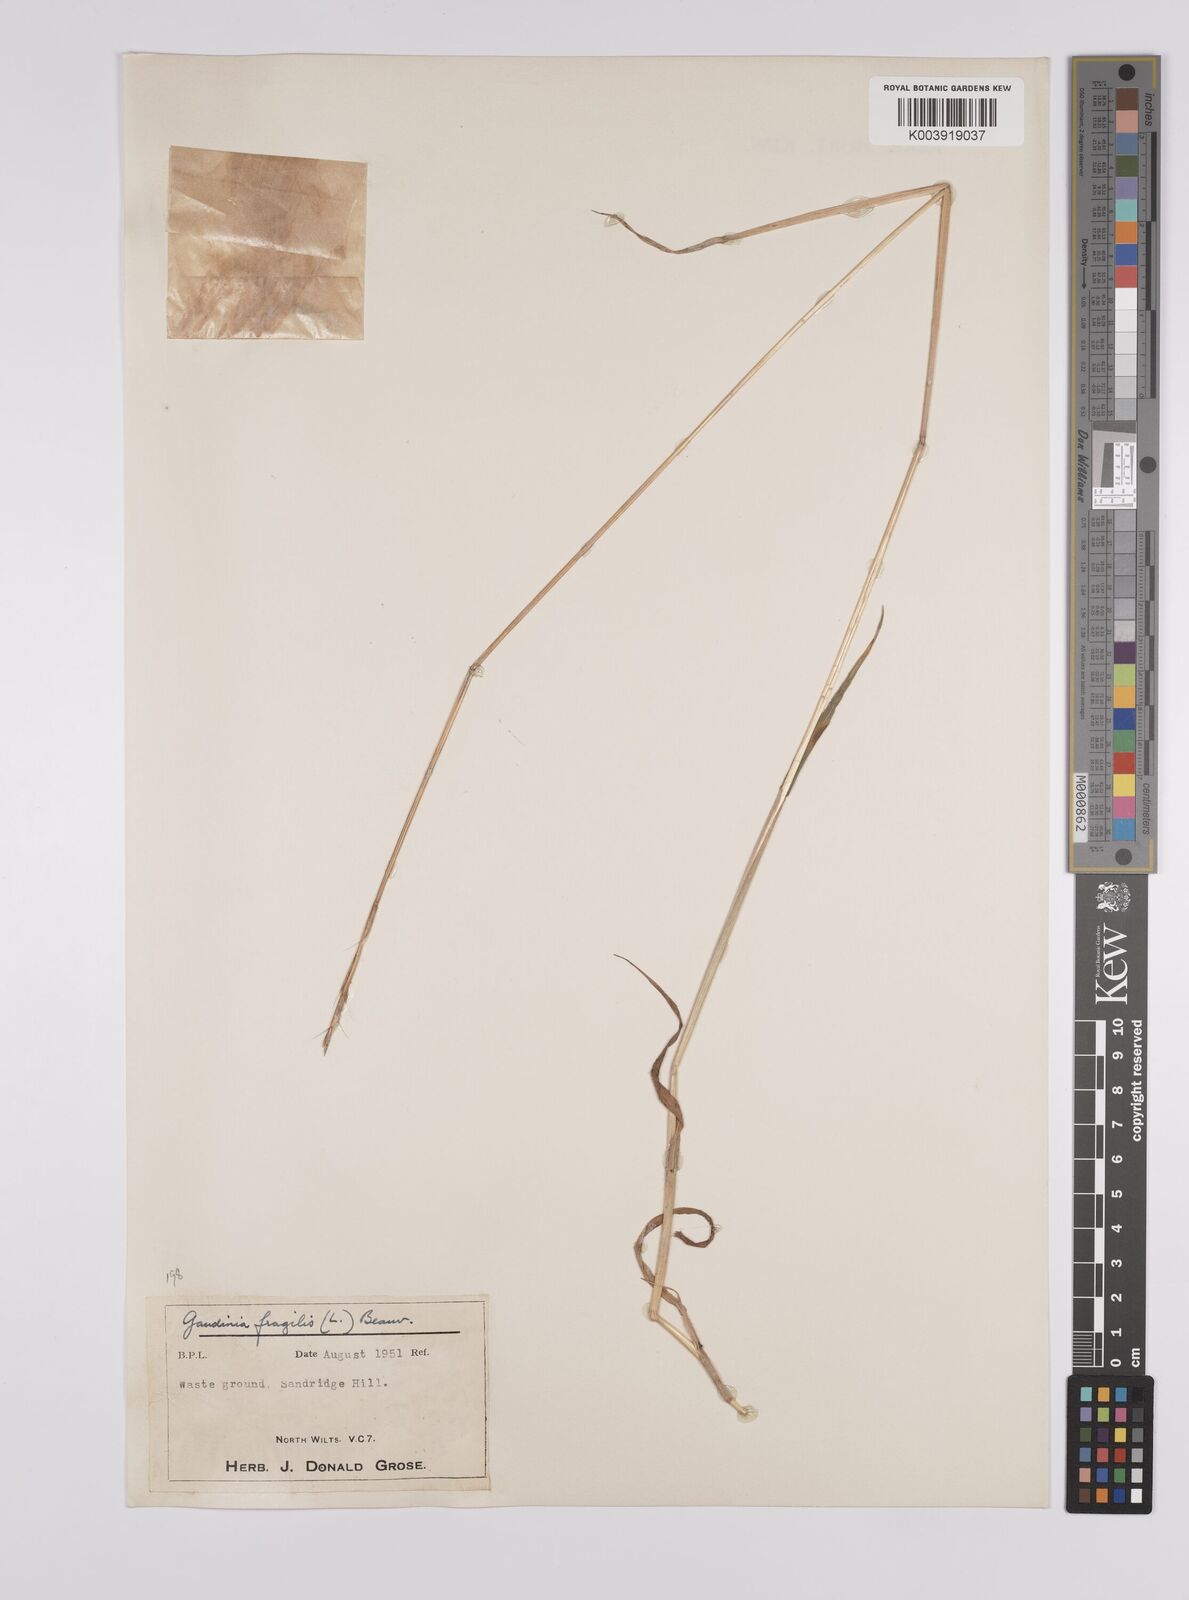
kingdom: Plantae
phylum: Tracheophyta
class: Liliopsida
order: Poales
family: Poaceae
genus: Gaudinia
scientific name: Gaudinia fragilis
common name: French oat-grass
